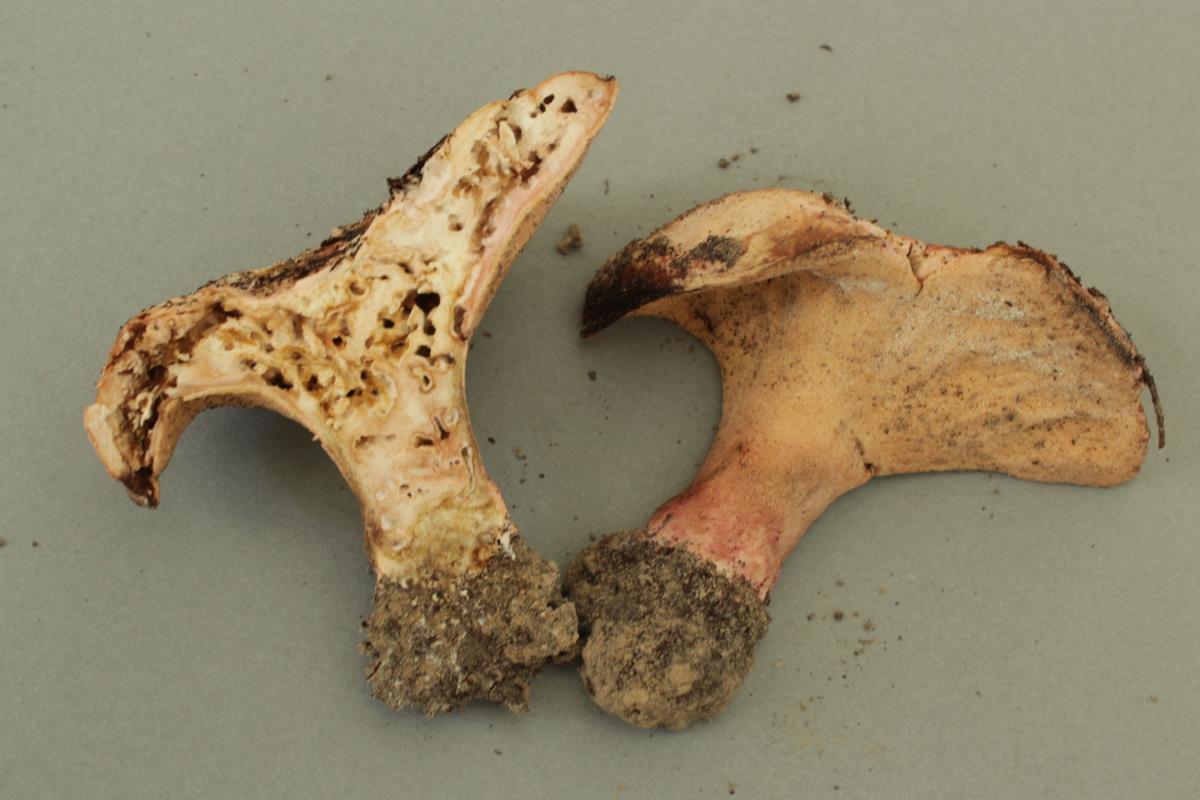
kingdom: Fungi
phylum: Ascomycota
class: Sordariomycetes
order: Hypocreales
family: Hypocreaceae
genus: Hypomyces
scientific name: Hypomyces rosellus
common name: Pink polypore mould
